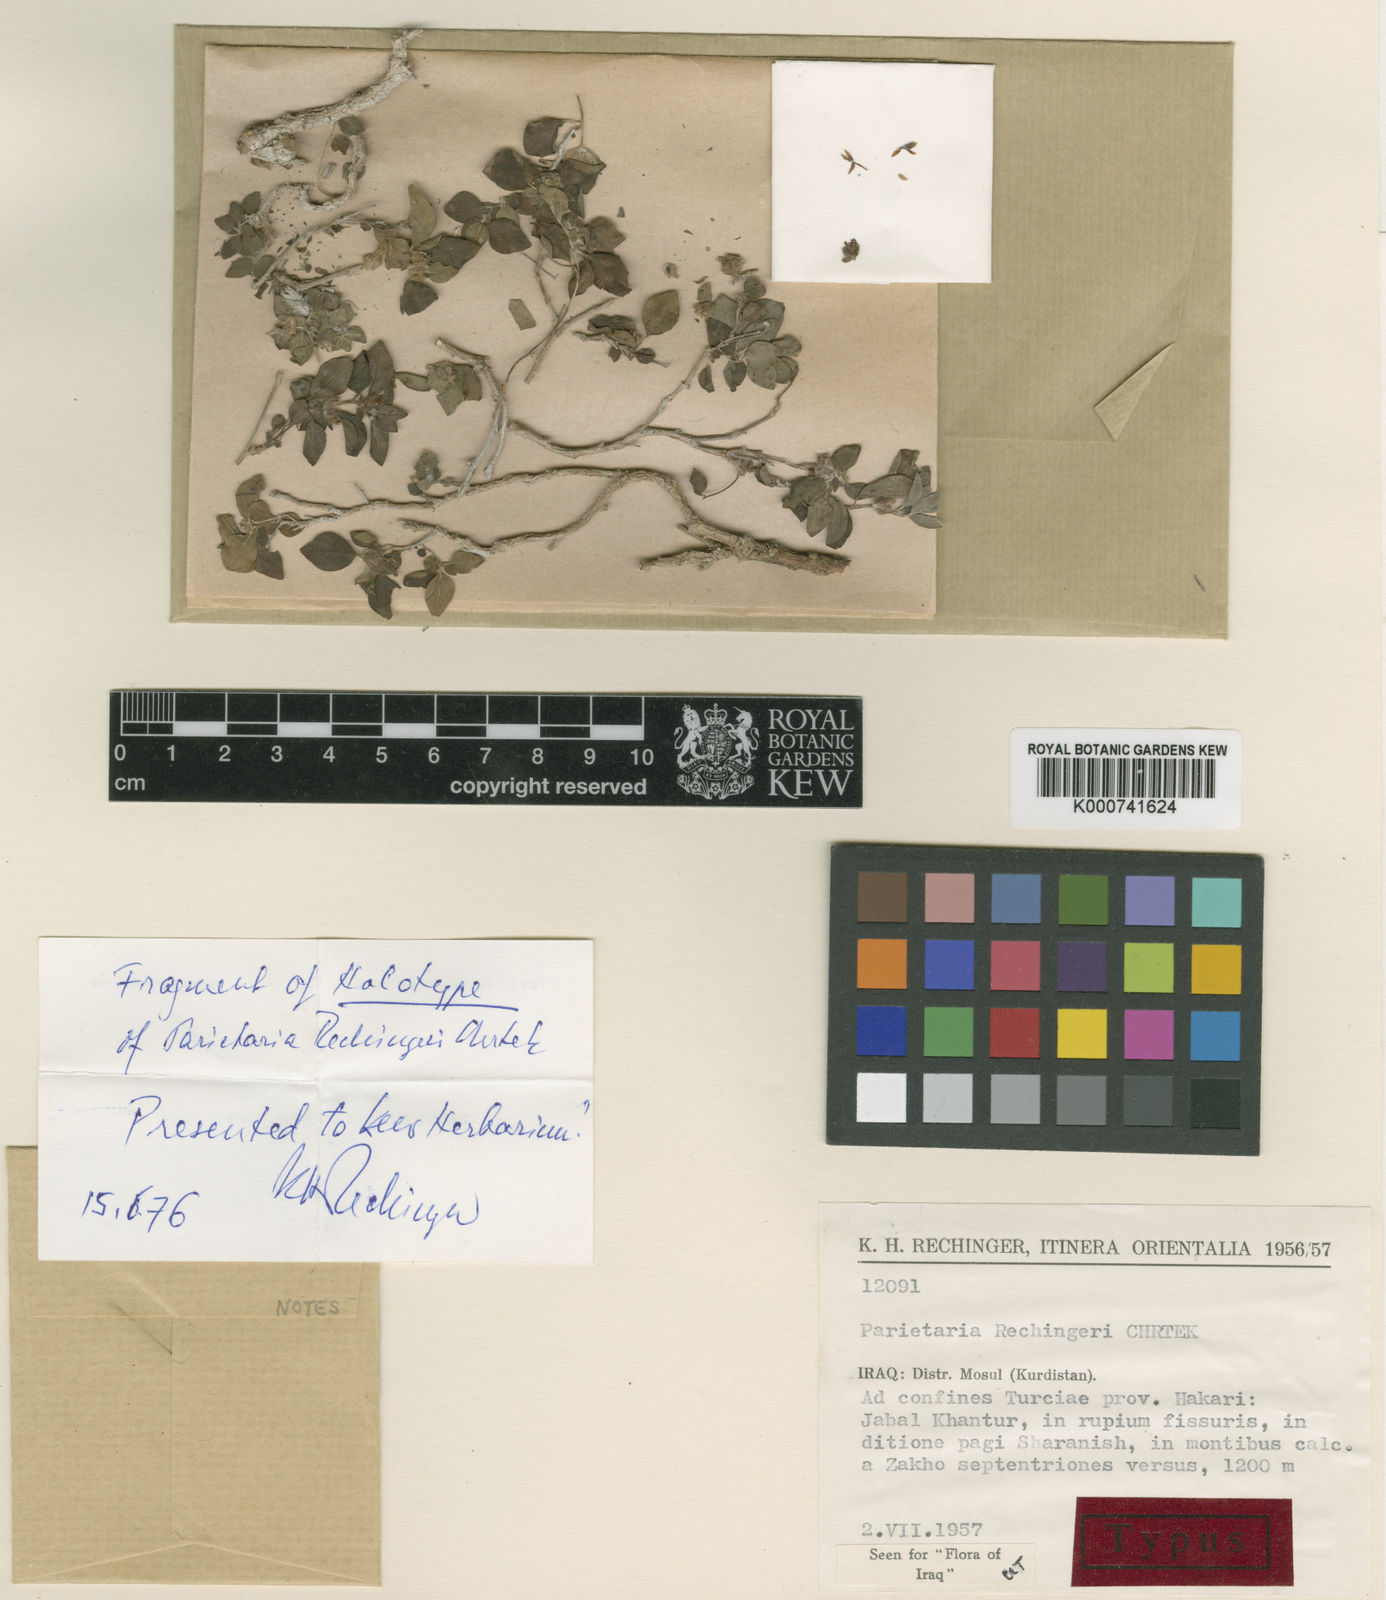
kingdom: Plantae
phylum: Tracheophyta
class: Magnoliopsida
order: Rosales
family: Urticaceae
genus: Parietaria
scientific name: Parietaria rechingeri
